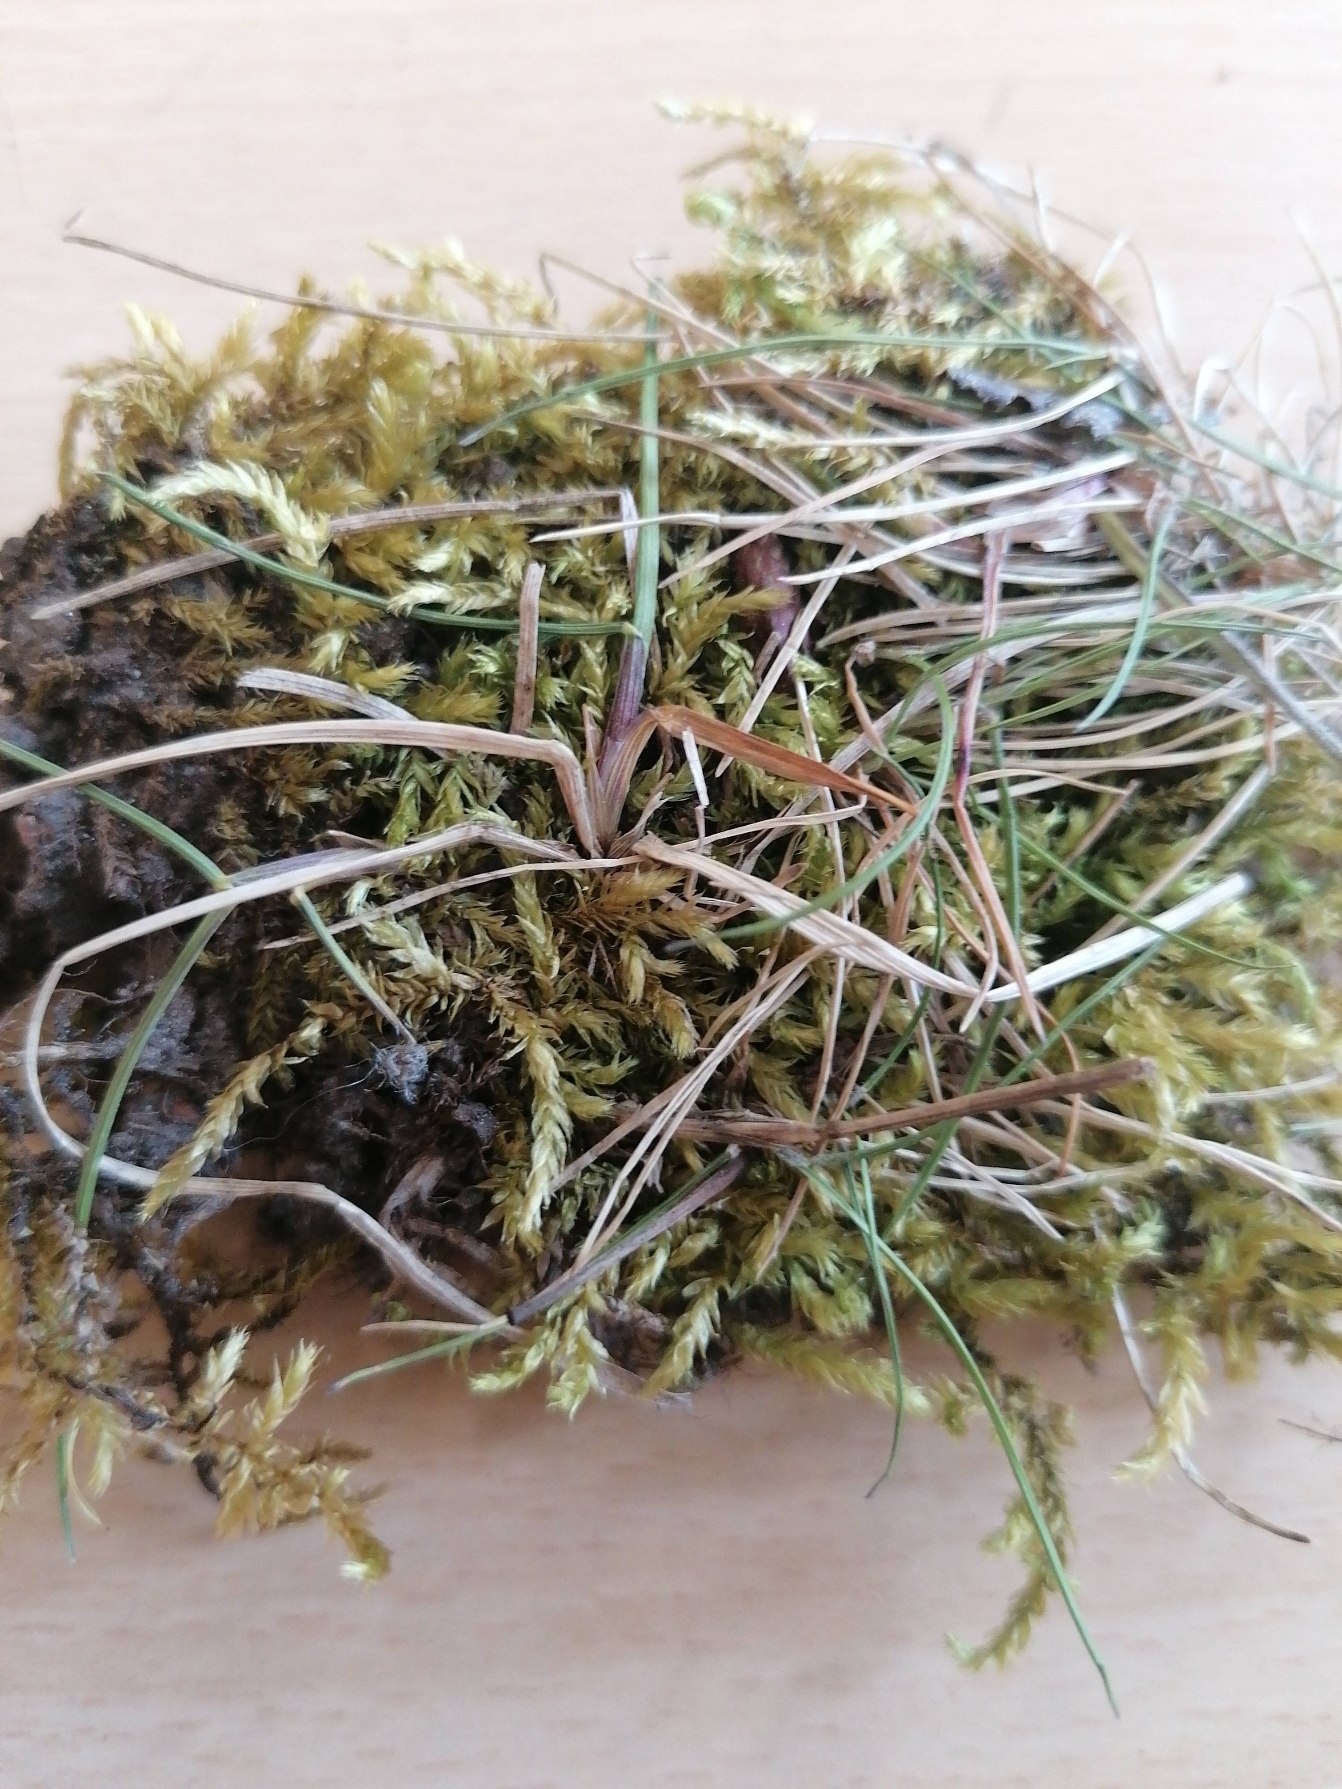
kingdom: Plantae
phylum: Bryophyta
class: Bryopsida
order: Hypnales
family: Brachytheciaceae
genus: Brachythecium
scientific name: Brachythecium rutabulum
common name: Almindelig kortkapsel
